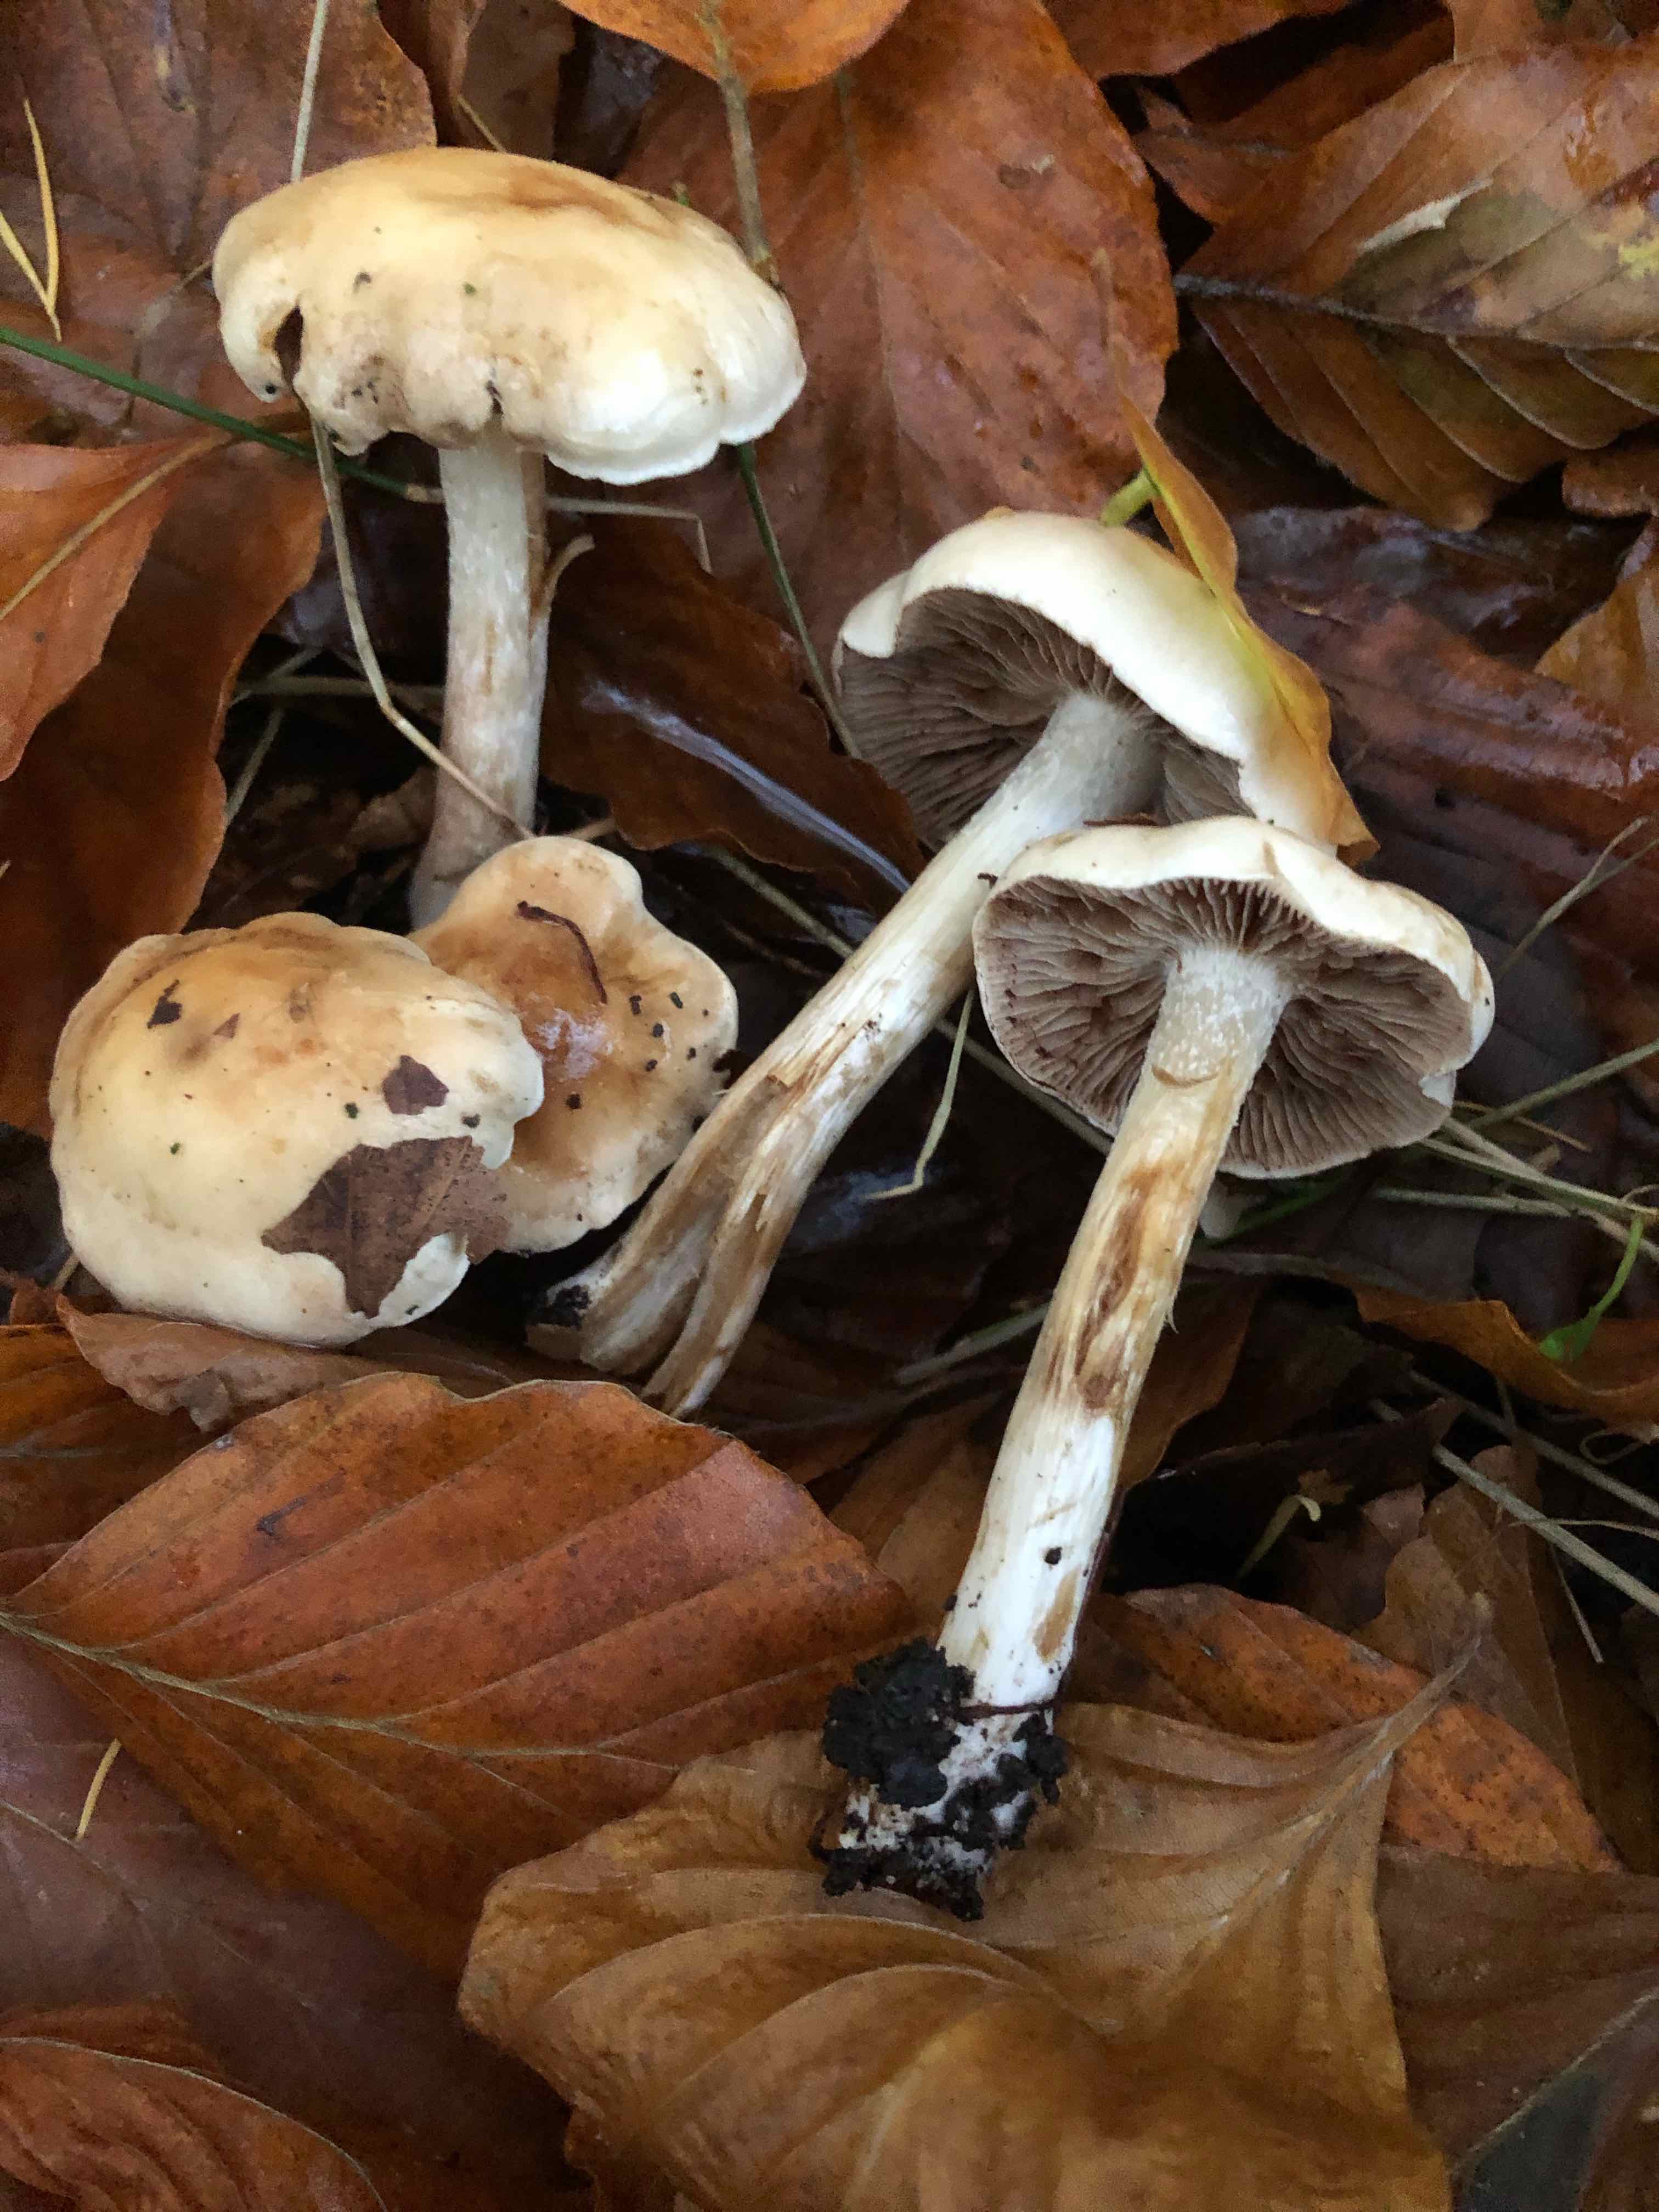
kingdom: Fungi
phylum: Basidiomycota
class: Agaricomycetes
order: Agaricales
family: Hymenogastraceae
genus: Hebeloma
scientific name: Hebeloma
